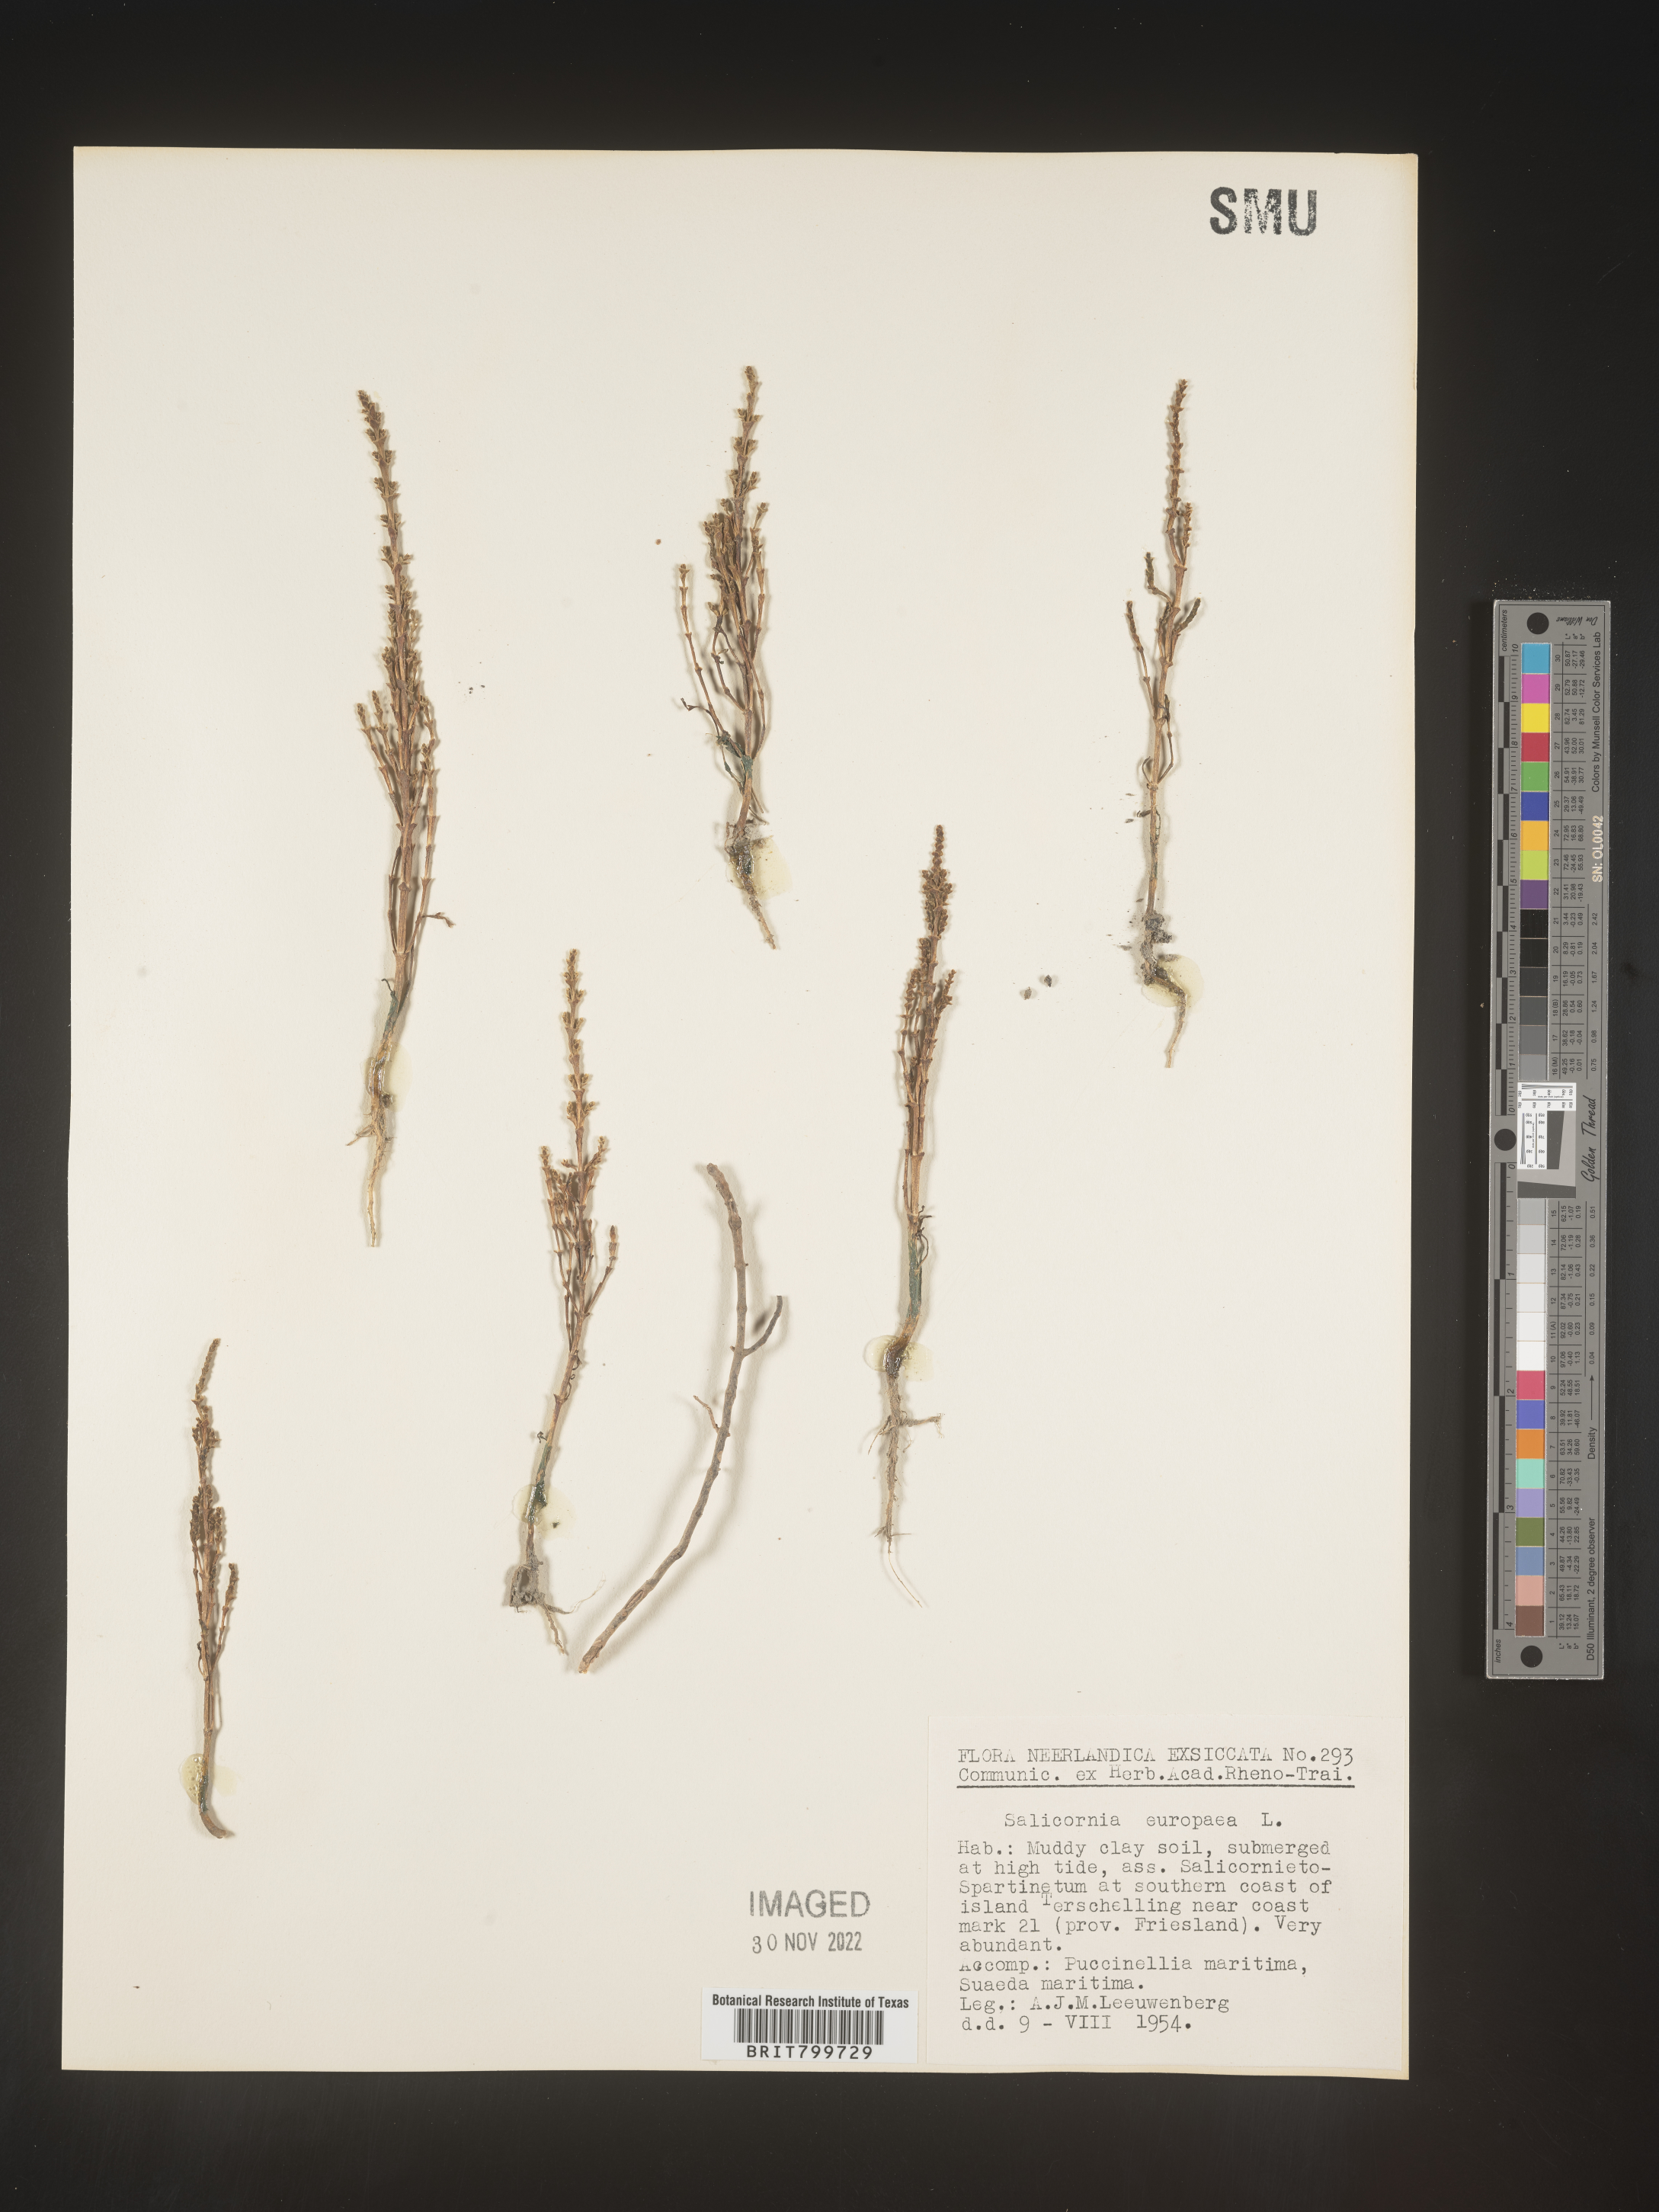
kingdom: Plantae
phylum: Tracheophyta
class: Magnoliopsida
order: Caryophyllales
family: Amaranthaceae
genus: Salicornia
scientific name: Salicornia
